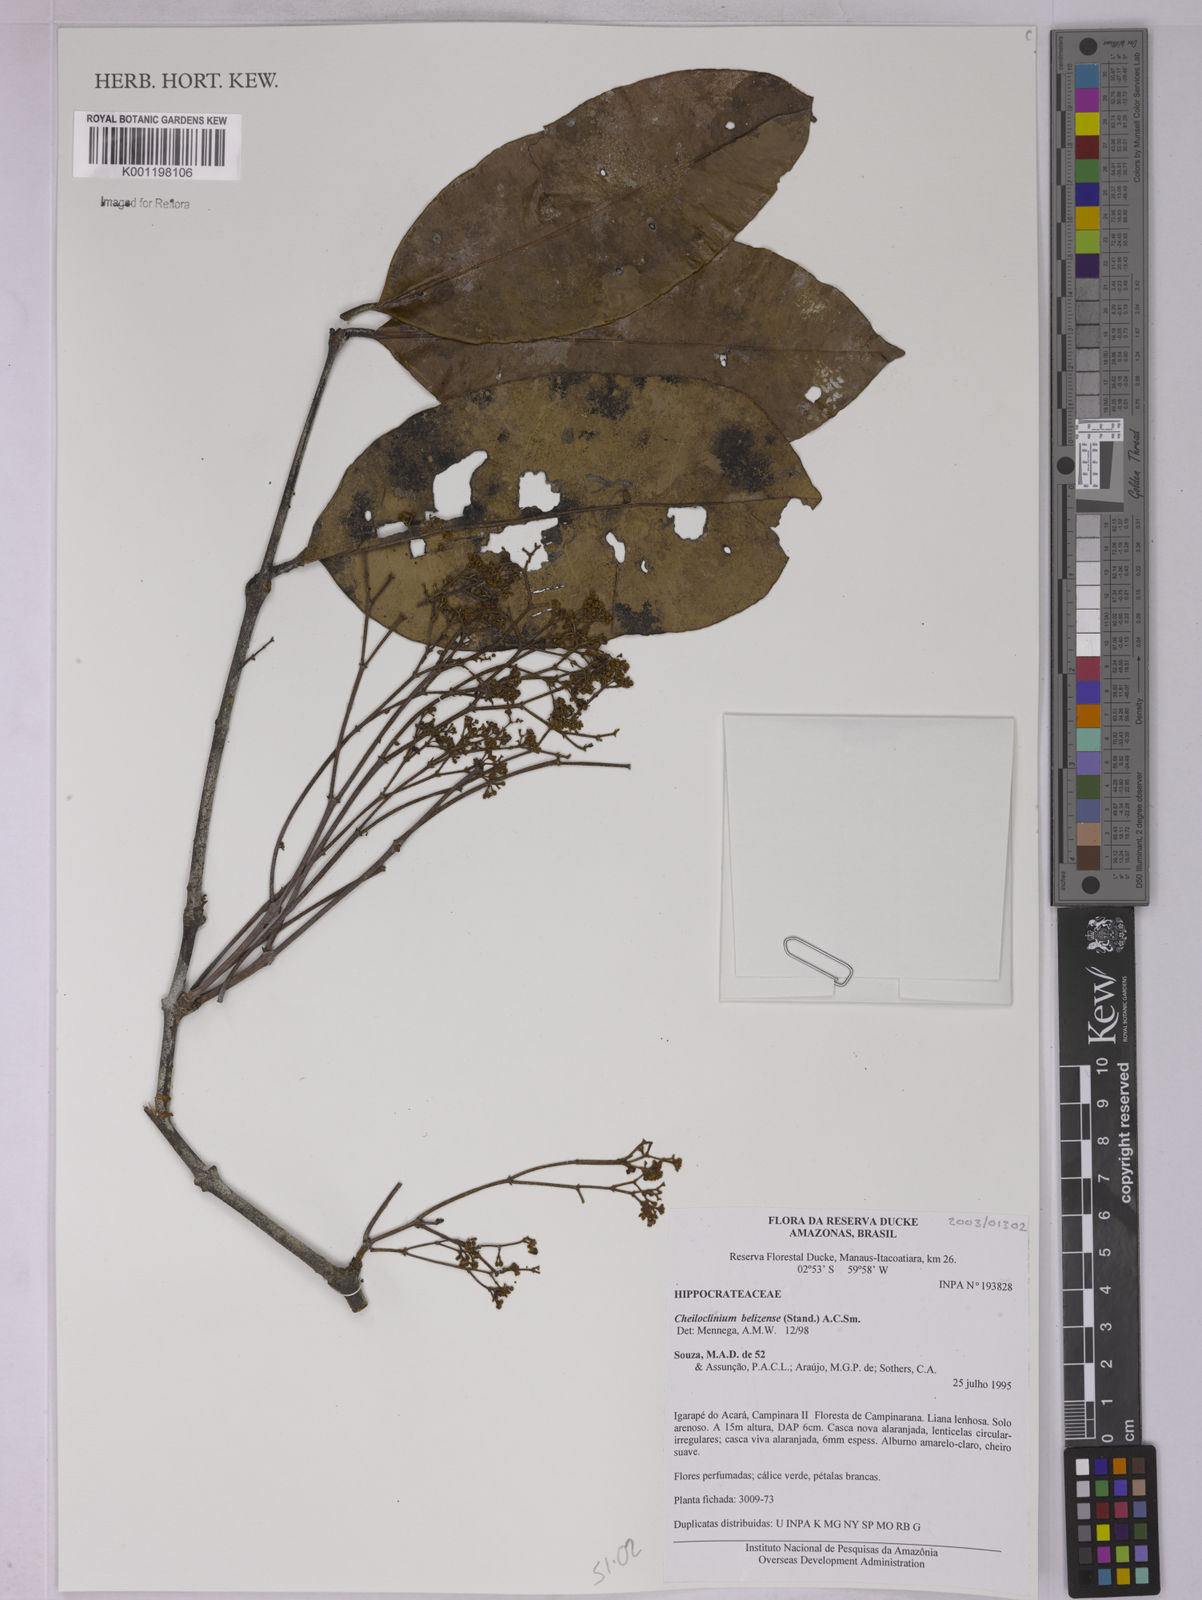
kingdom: Plantae
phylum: Tracheophyta
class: Magnoliopsida
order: Celastrales
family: Celastraceae
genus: Cheiloclinium
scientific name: Cheiloclinium belizense
